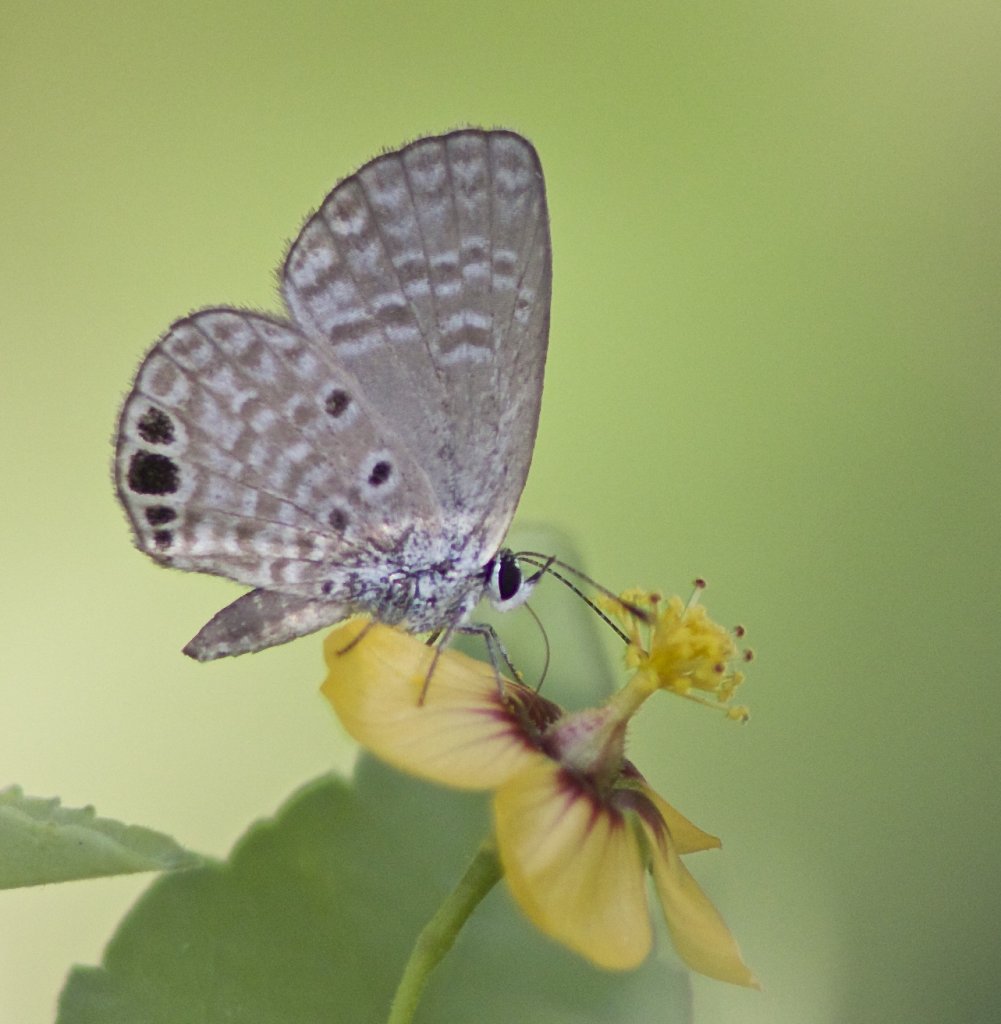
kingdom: Animalia
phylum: Arthropoda
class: Insecta
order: Lepidoptera
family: Lycaenidae
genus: Hemiargus
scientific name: Hemiargus ceraunus
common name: Ceraunus Blue
